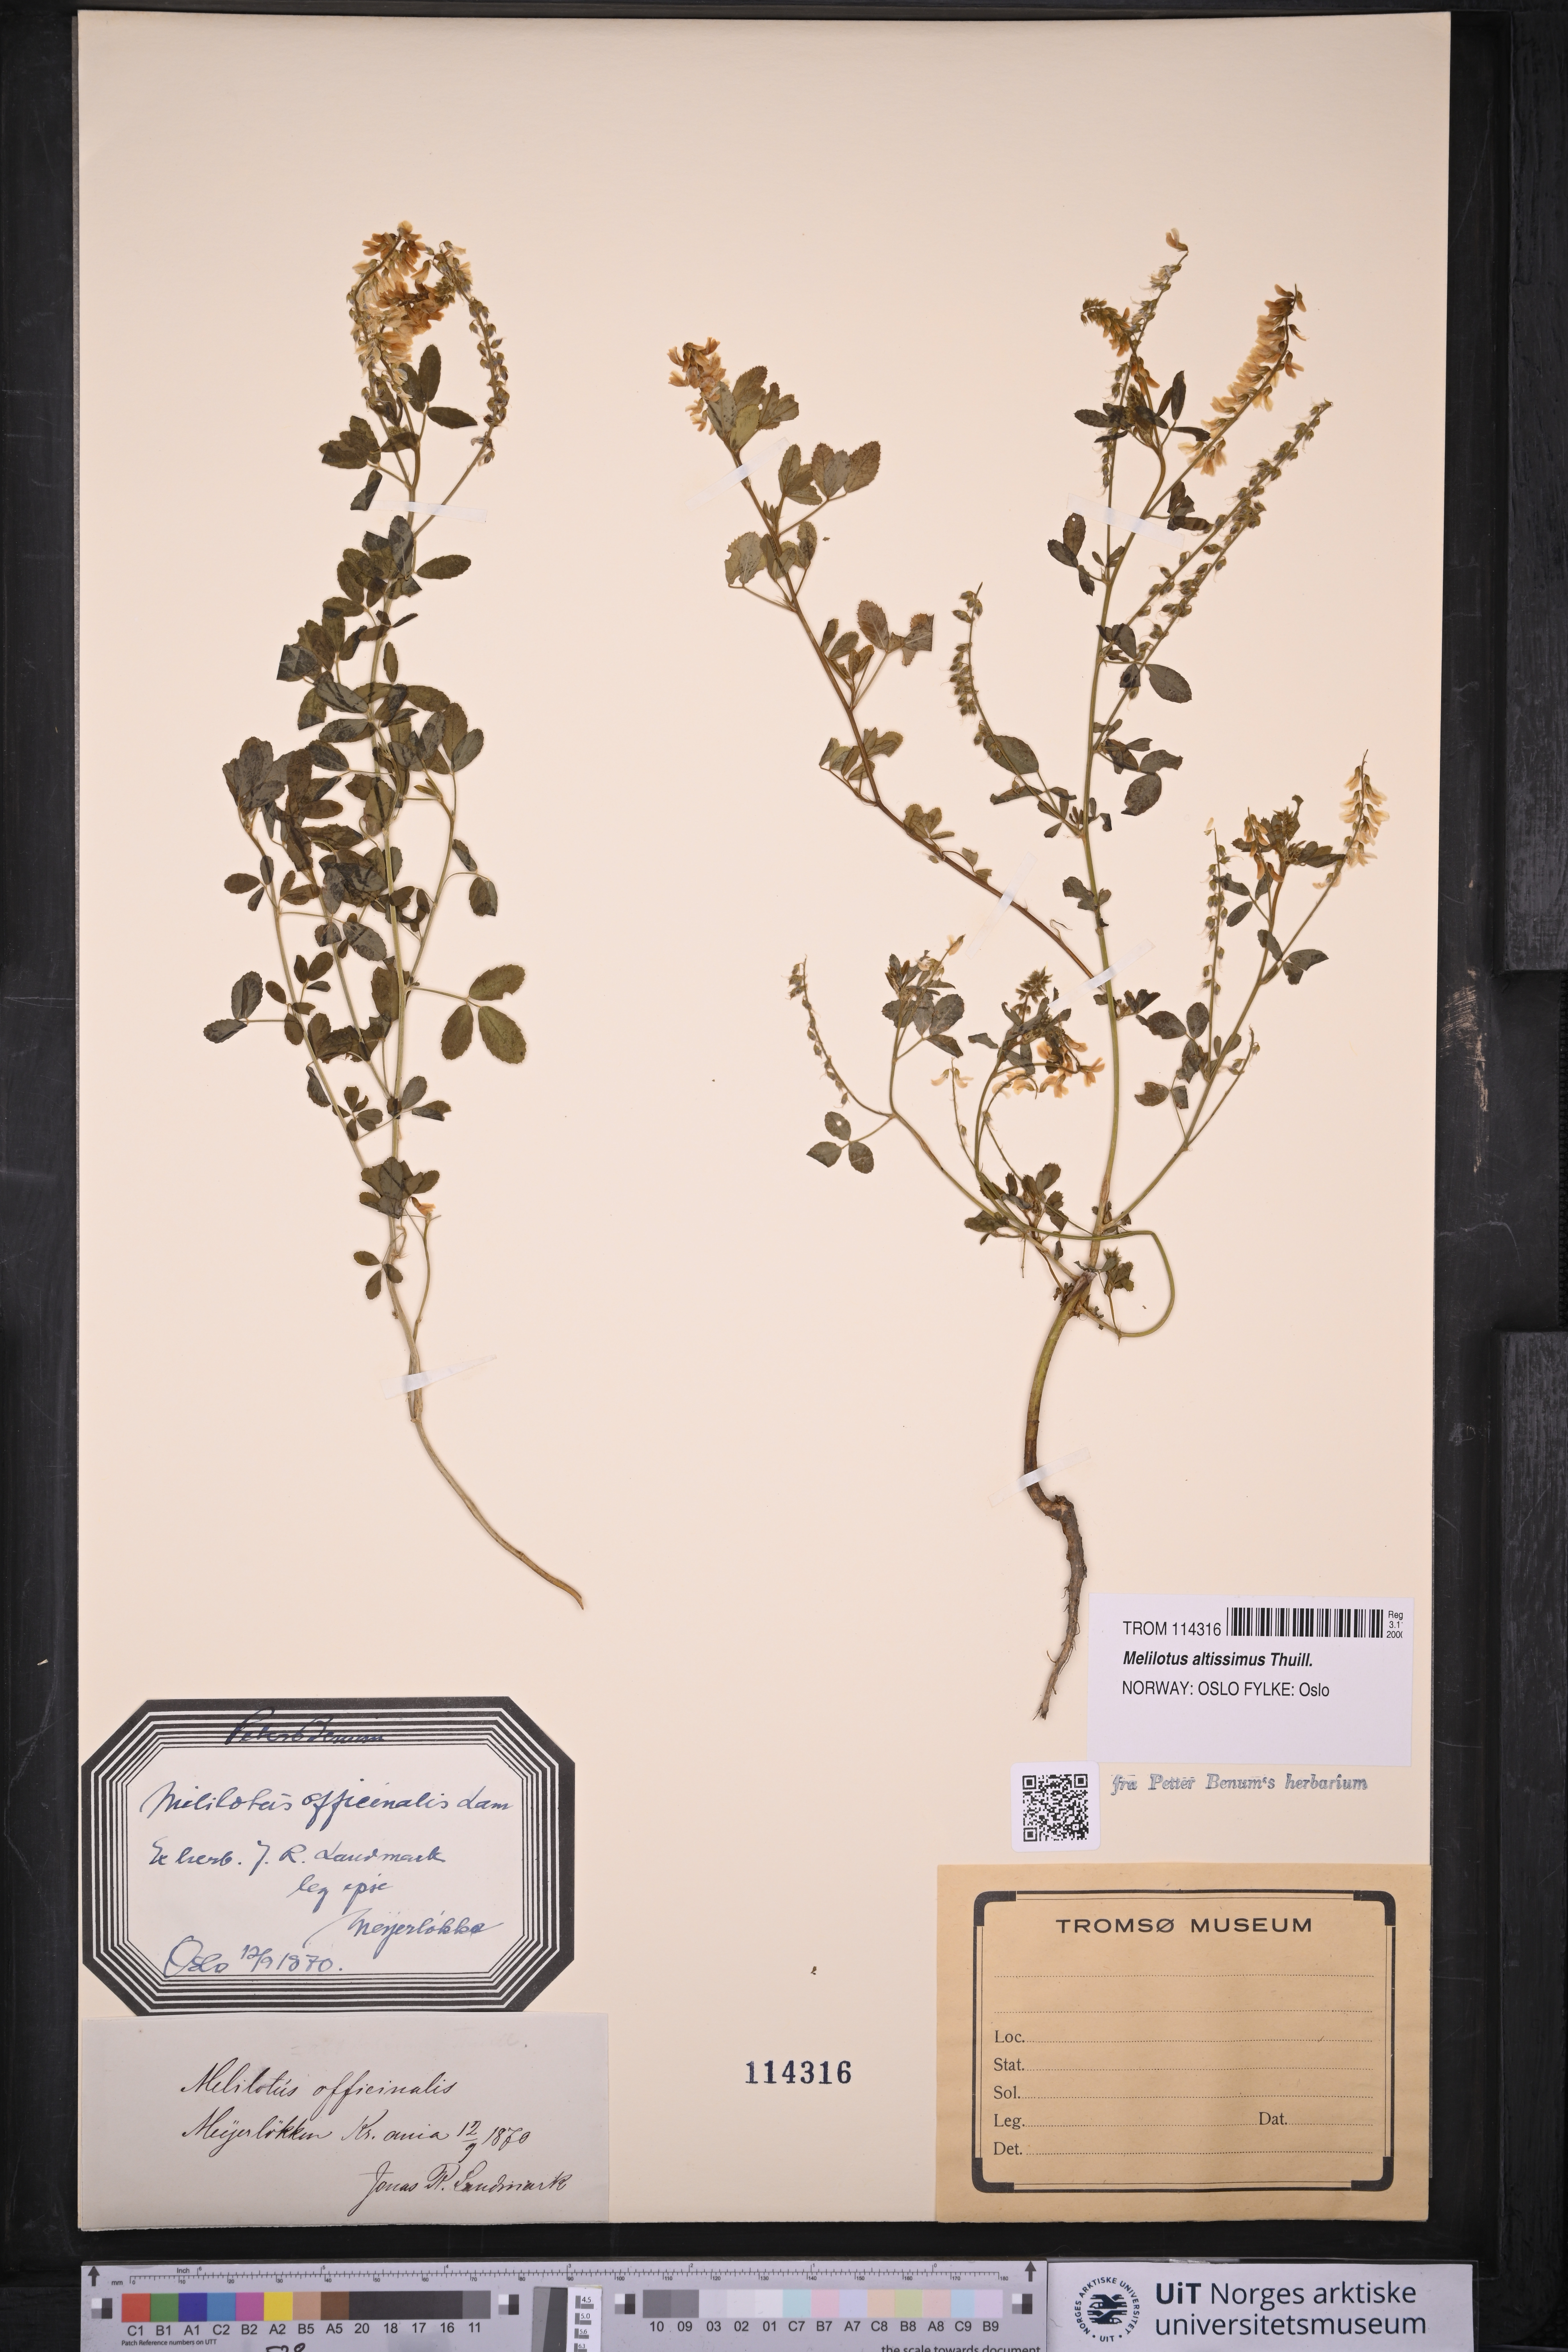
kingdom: Plantae
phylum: Tracheophyta
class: Magnoliopsida
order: Fabales
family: Fabaceae
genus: Melilotus
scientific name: Melilotus altissimus
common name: Tall melilot
